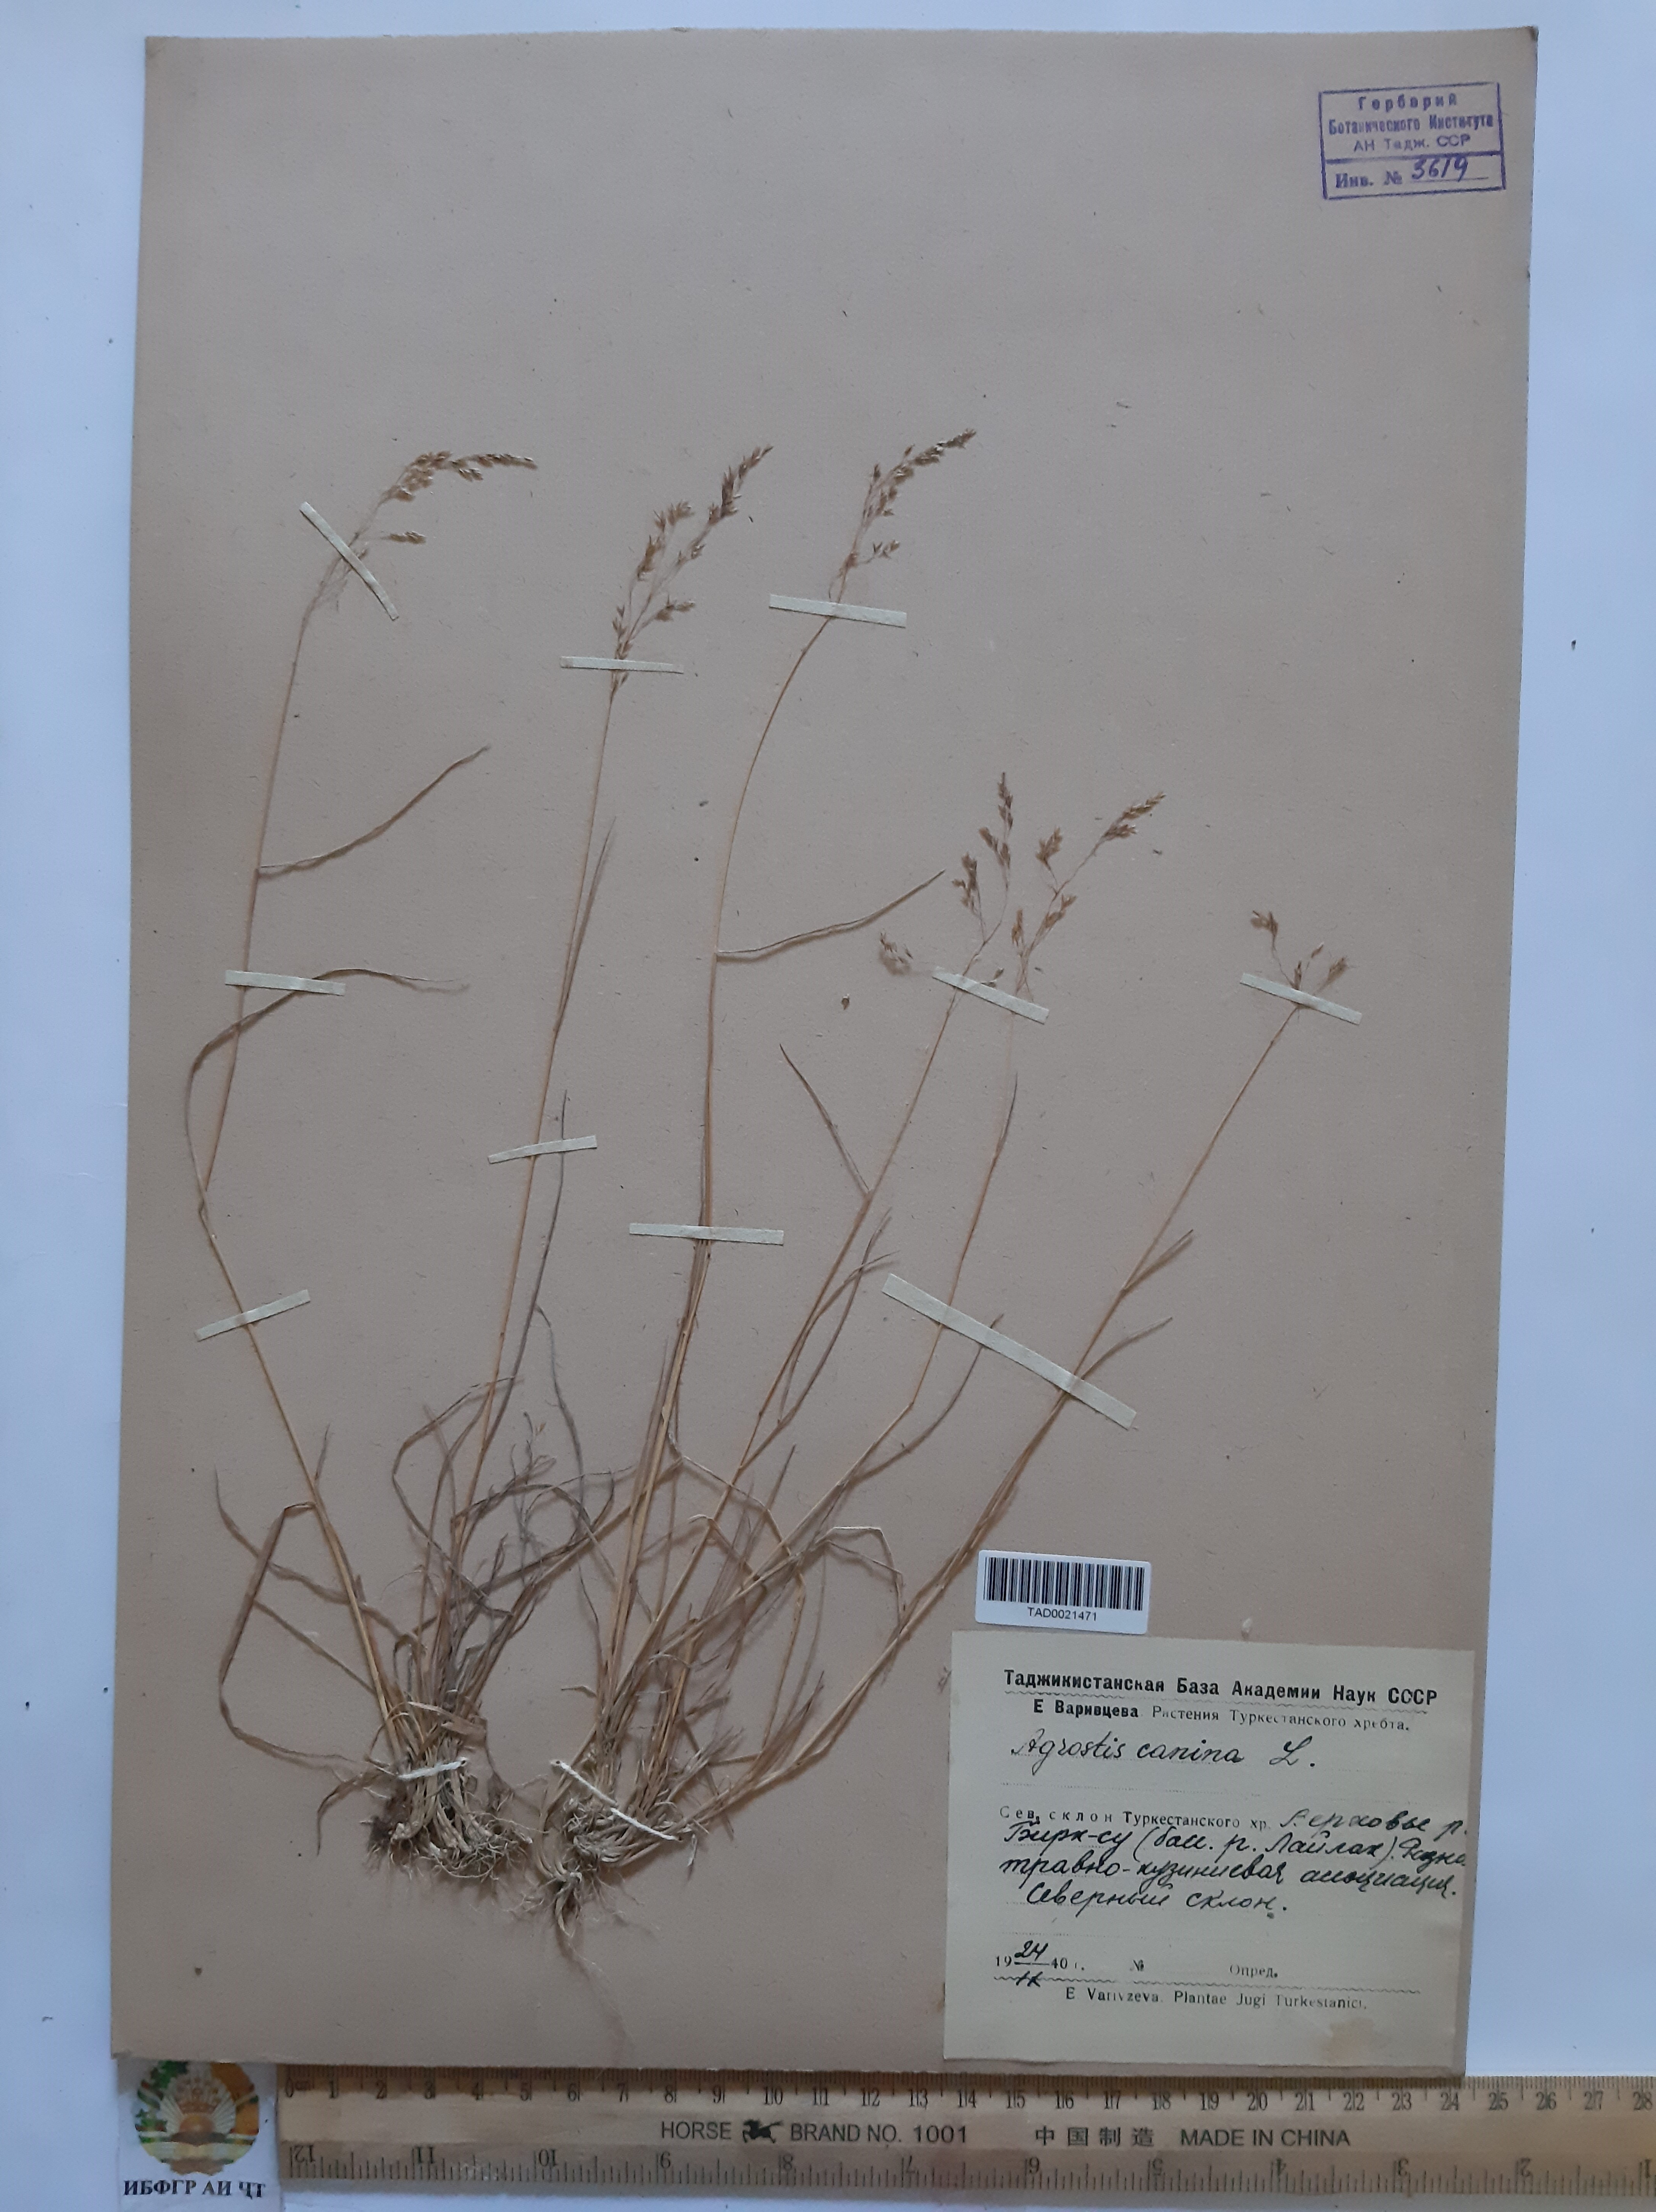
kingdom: Plantae
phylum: Tracheophyta
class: Liliopsida
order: Poales
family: Poaceae
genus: Agrostis
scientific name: Agrostis canina
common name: Velvet bent
